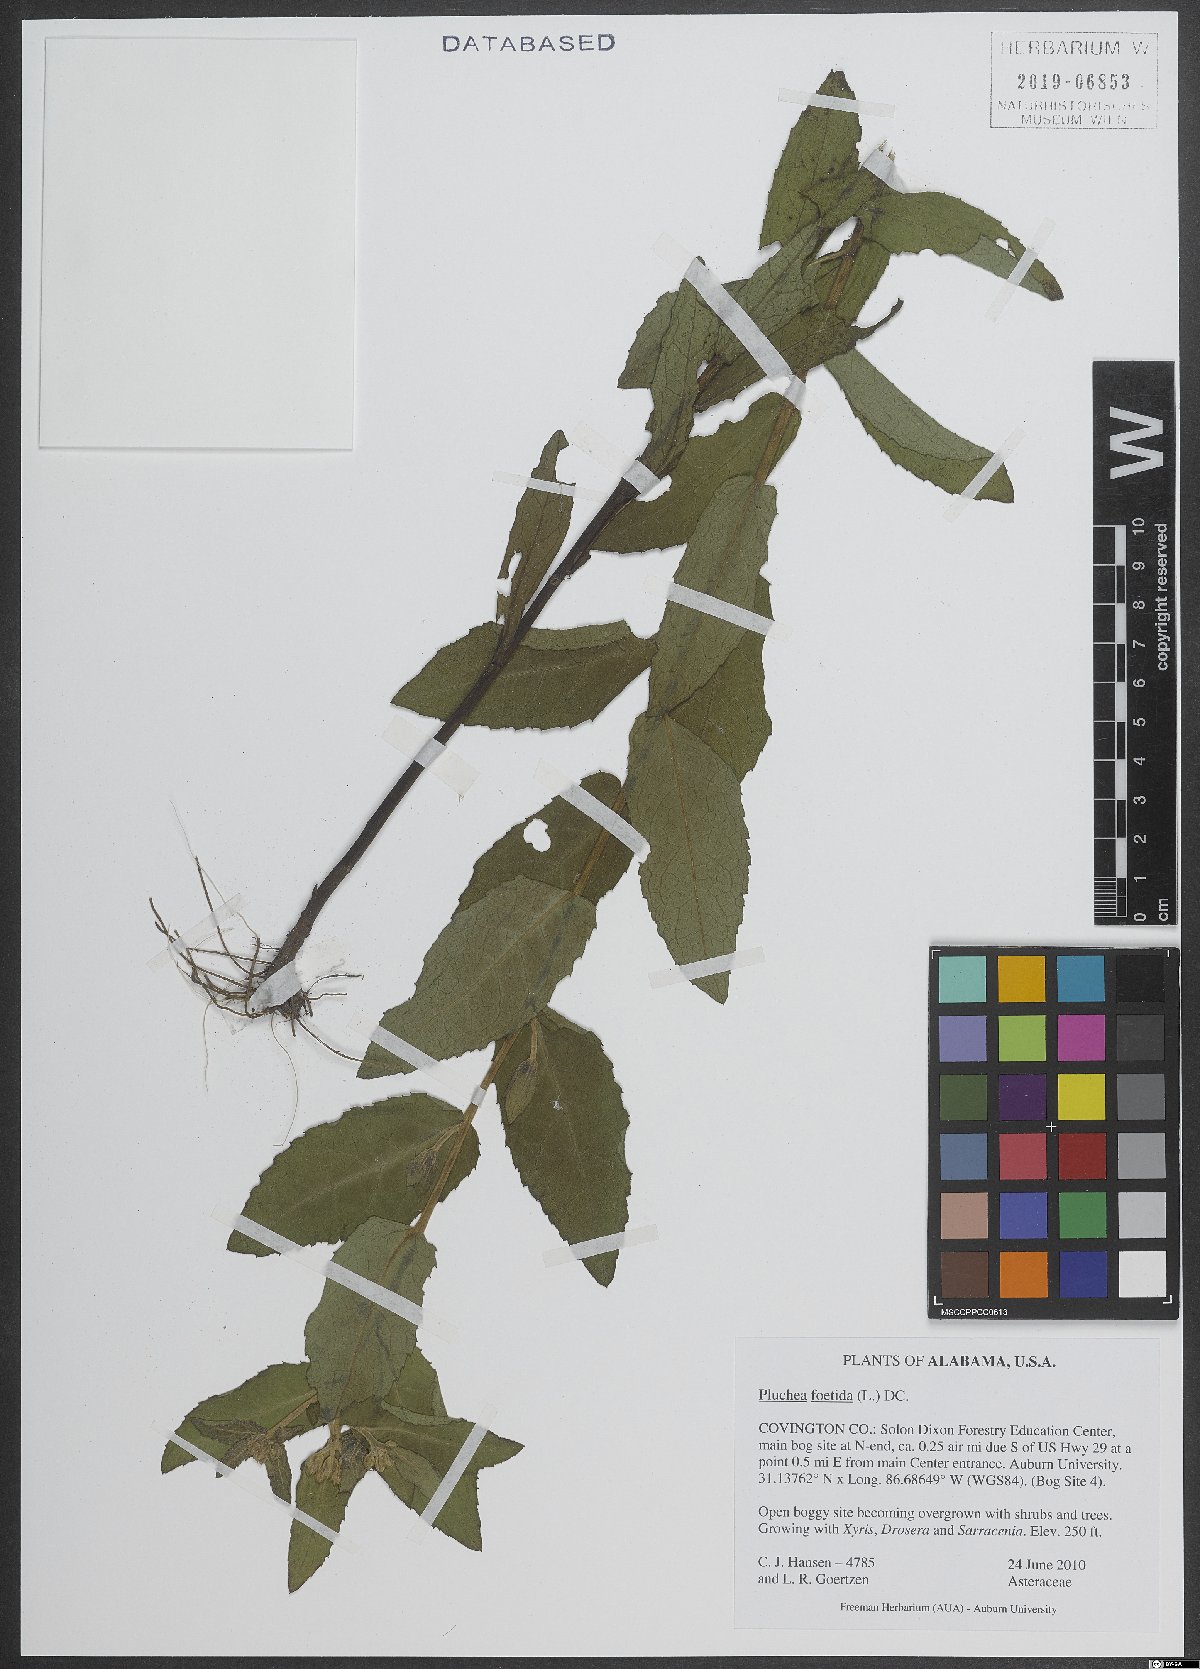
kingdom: Plantae
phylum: Tracheophyta
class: Magnoliopsida
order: Asterales
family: Asteraceae
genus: Pluchea
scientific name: Pluchea foetida
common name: Stinking camphorweed
